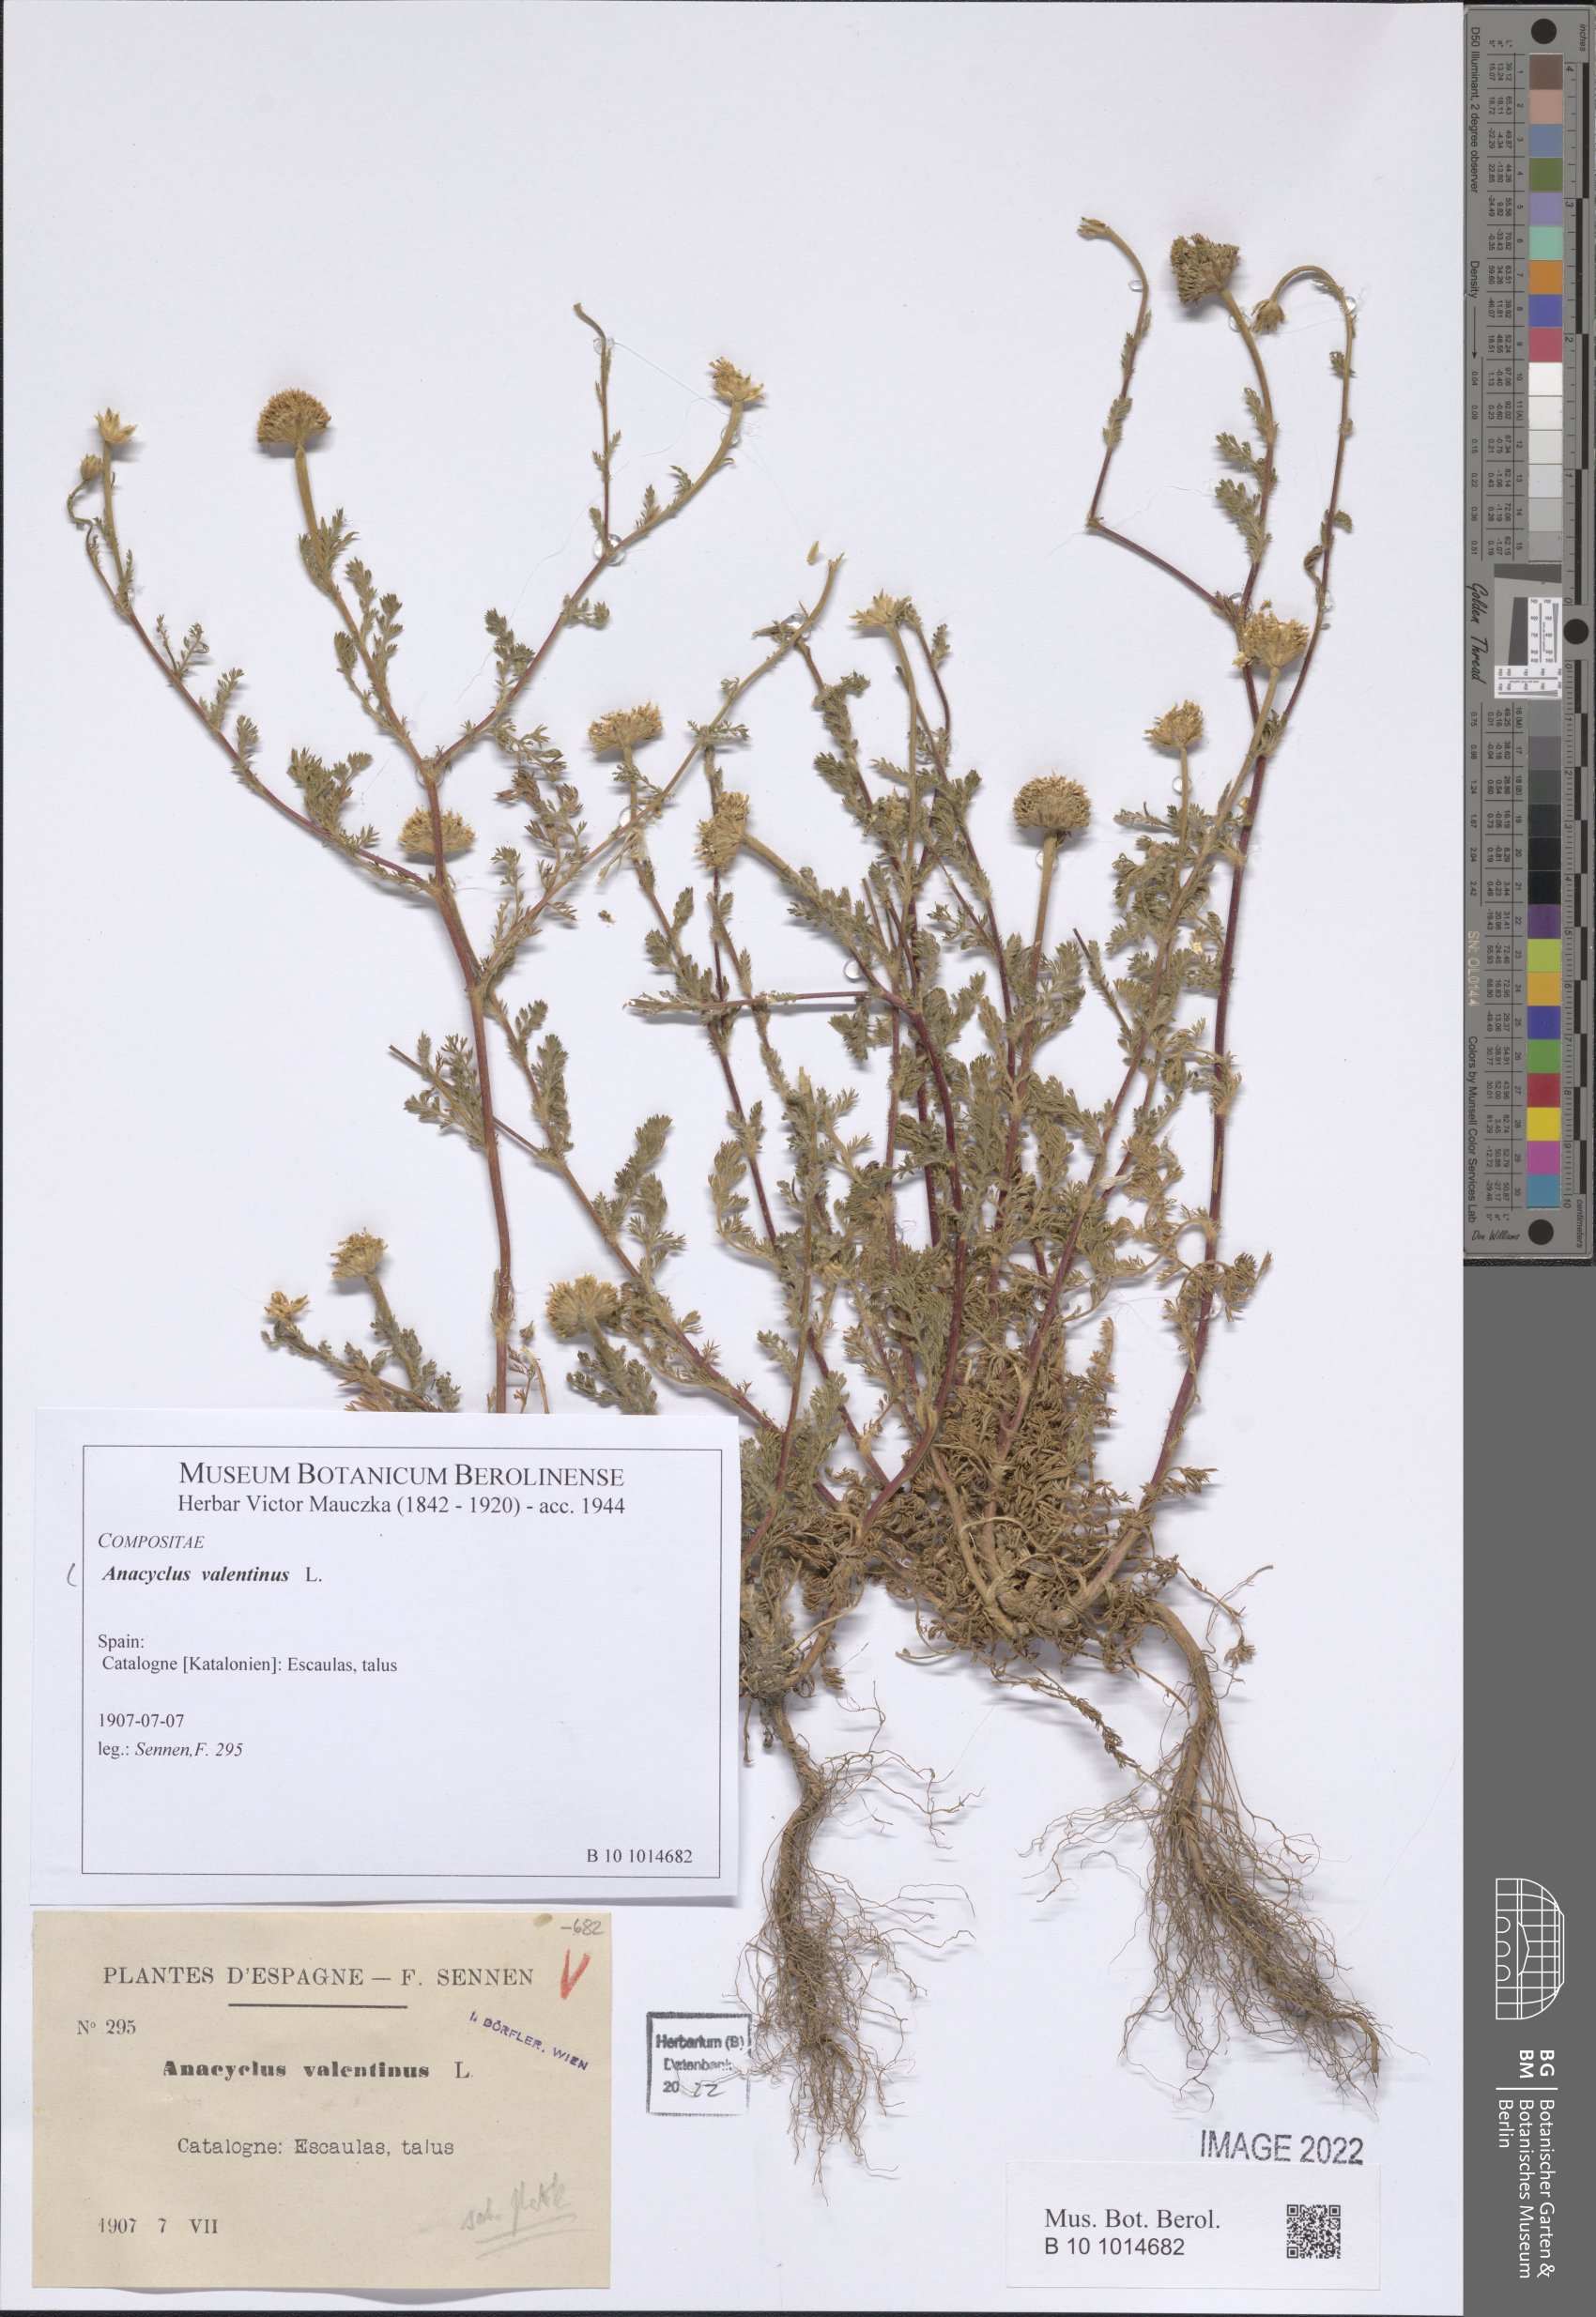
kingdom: Plantae
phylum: Tracheophyta
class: Magnoliopsida
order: Asterales
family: Asteraceae
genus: Anacyclus
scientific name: Anacyclus valentinus
